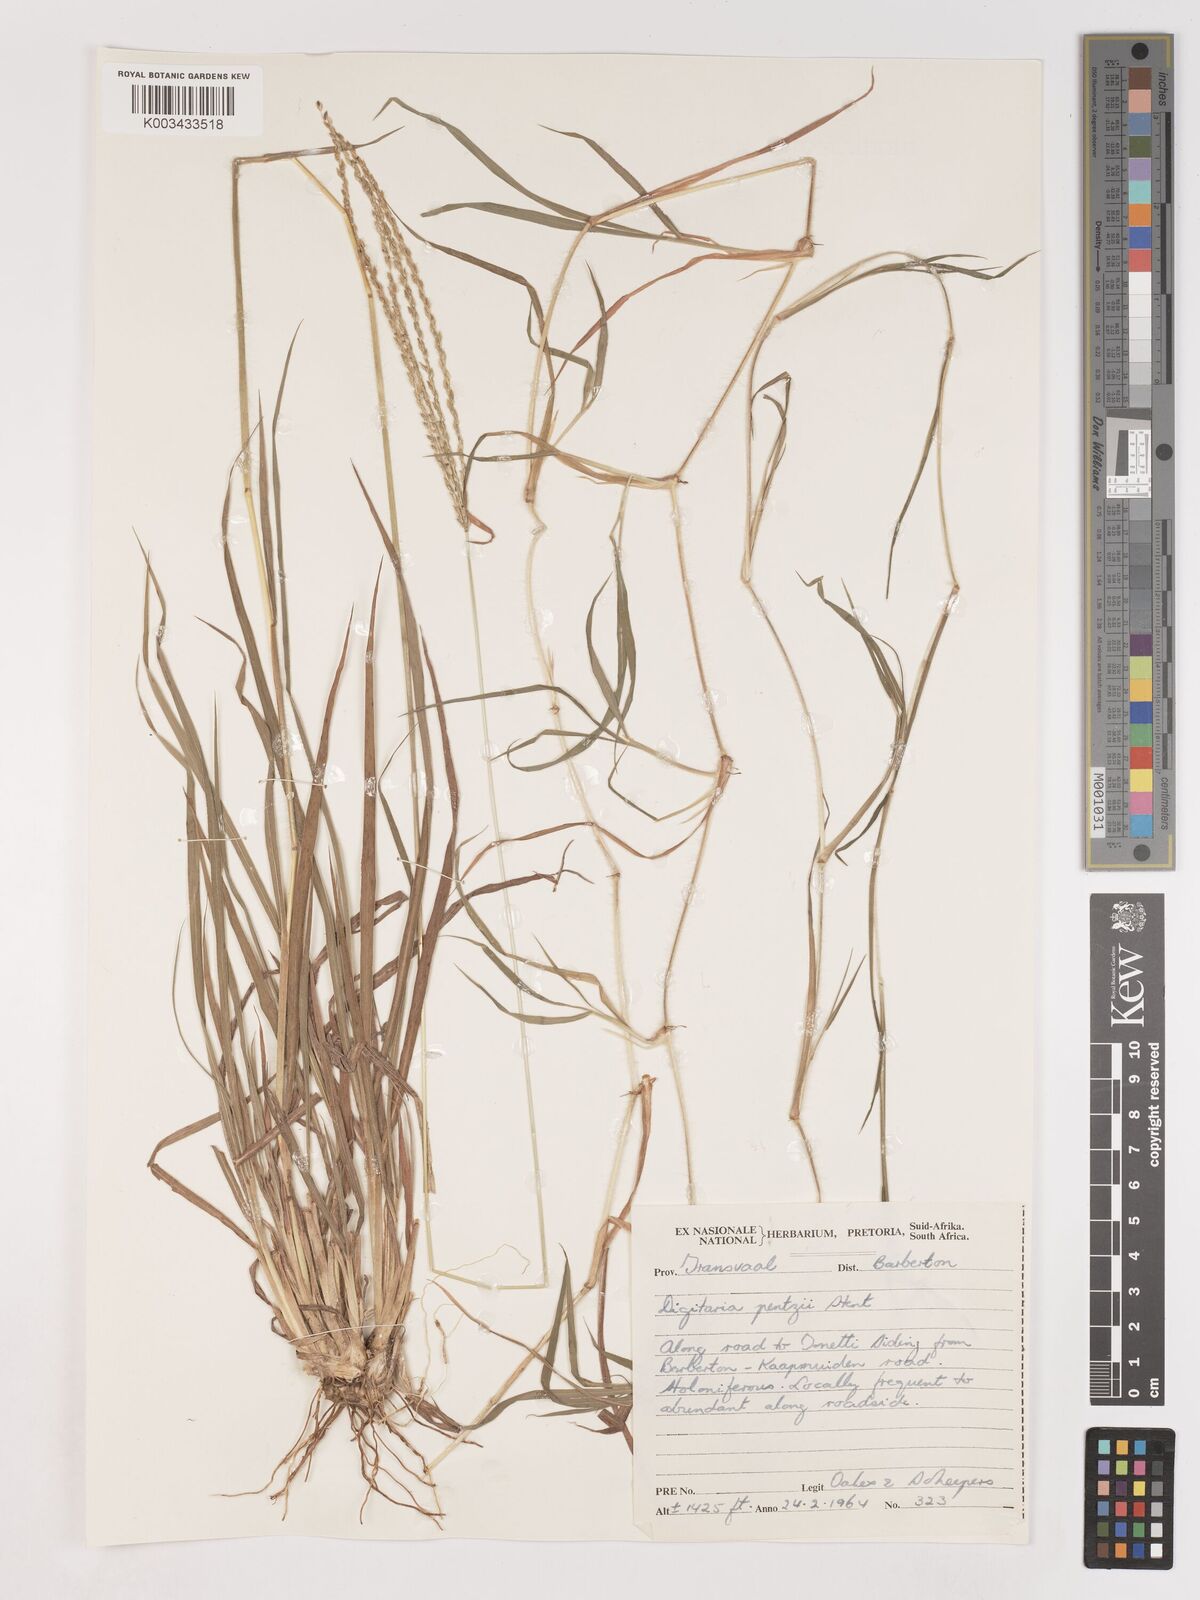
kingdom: Plantae
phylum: Tracheophyta
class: Liliopsida
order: Poales
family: Poaceae
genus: Digitaria
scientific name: Digitaria eriantha
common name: Digitgrass
